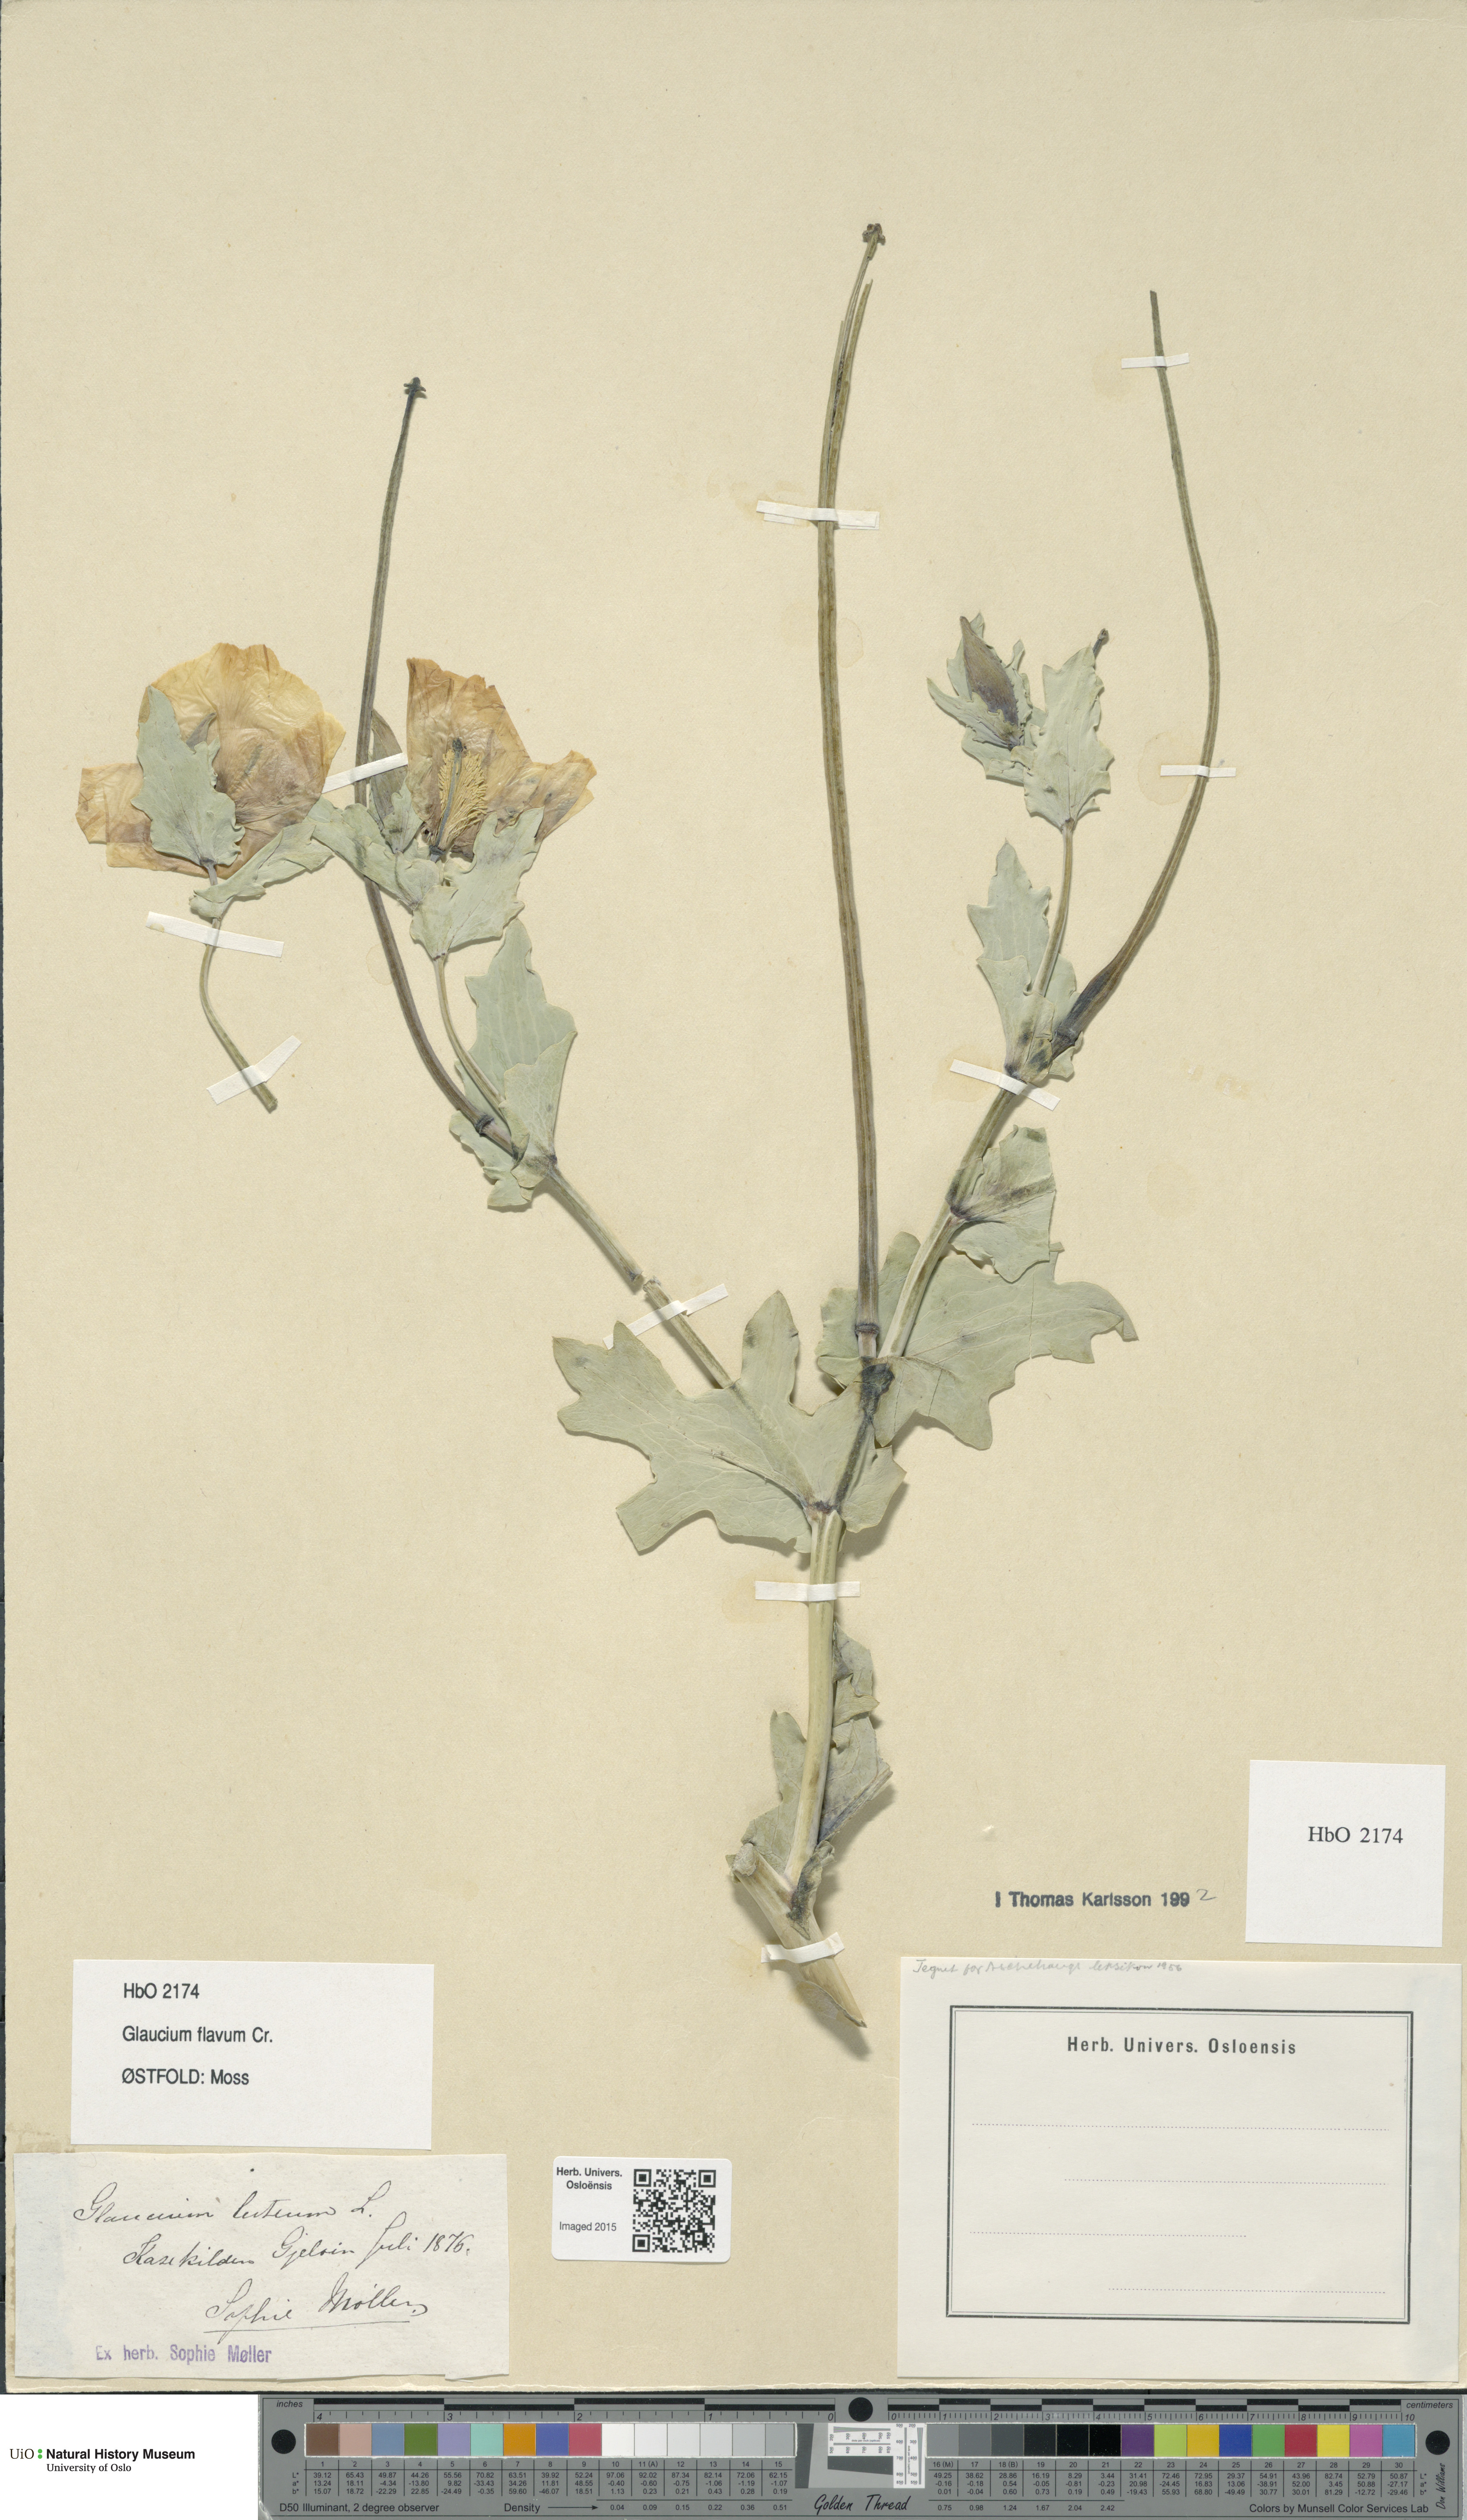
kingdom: Plantae
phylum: Tracheophyta
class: Magnoliopsida
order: Ranunculales
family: Papaveraceae
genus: Glaucium
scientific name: Glaucium flavum
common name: Yellow horned-poppy
